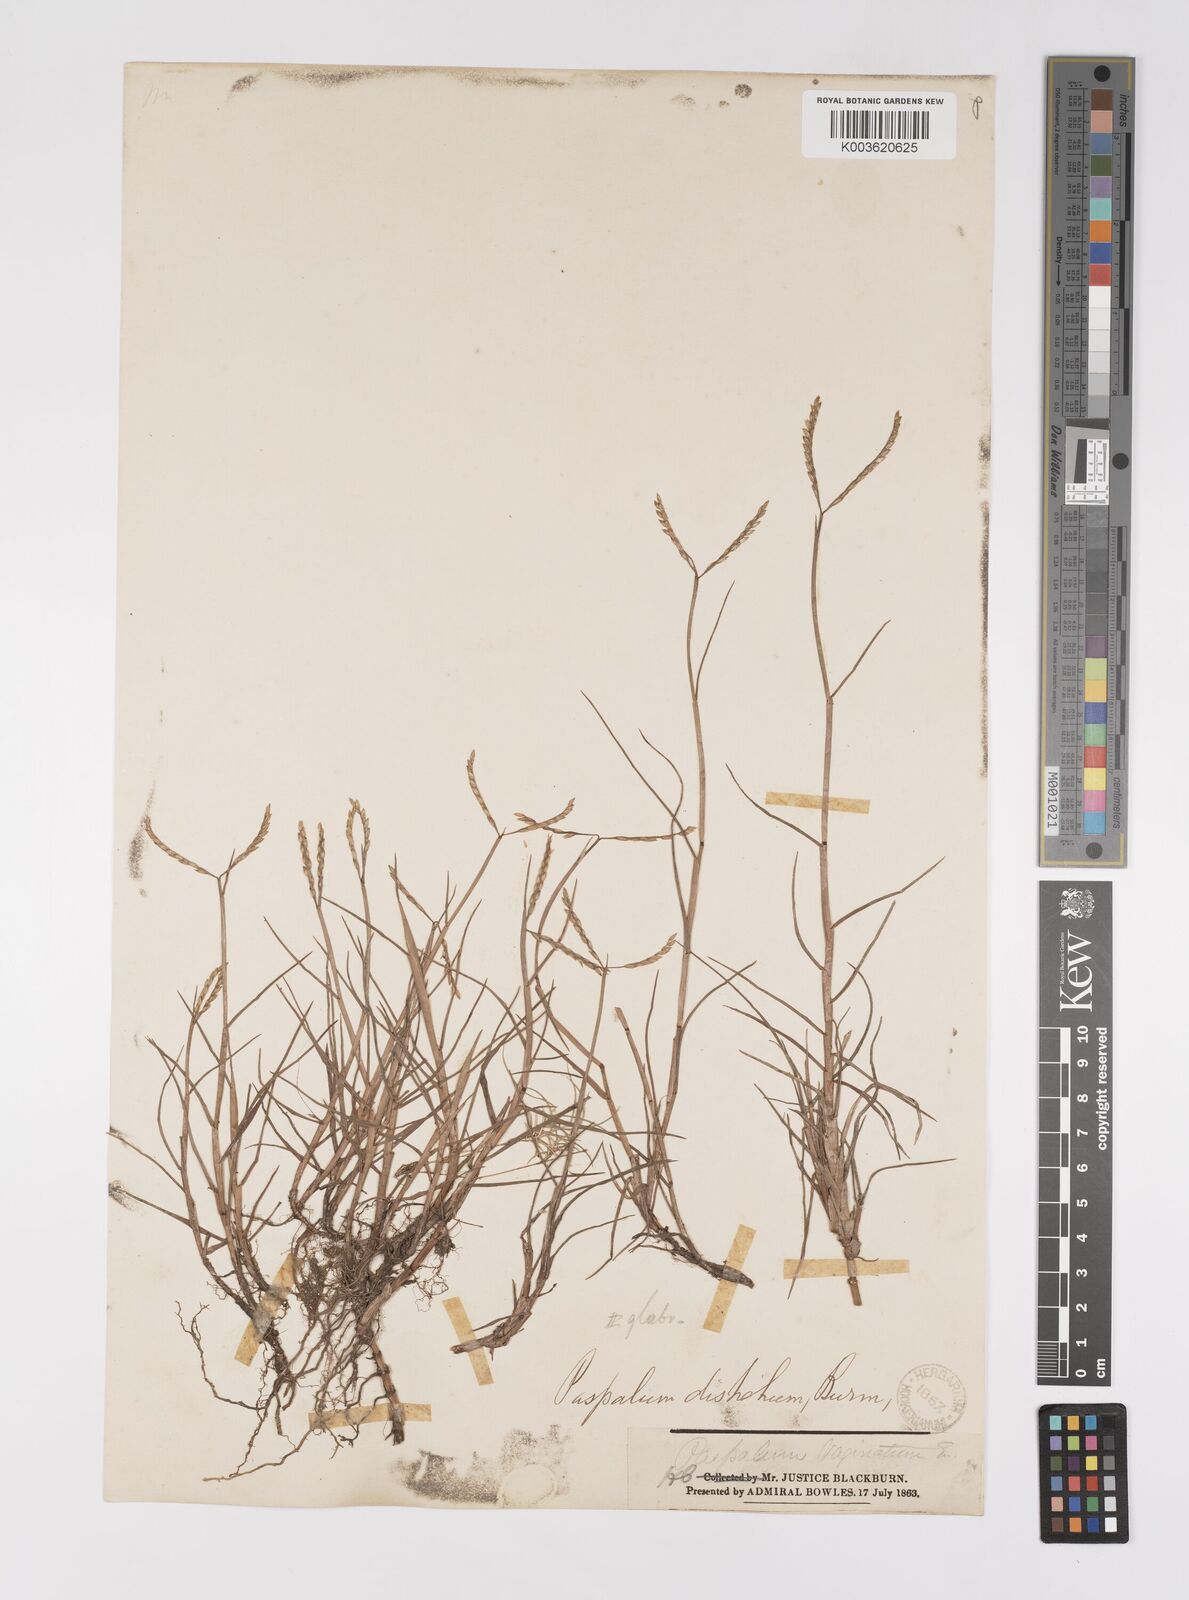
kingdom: Plantae
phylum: Tracheophyta
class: Liliopsida
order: Poales
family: Poaceae
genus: Paspalum
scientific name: Paspalum vaginatum
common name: Seashore paspalum
